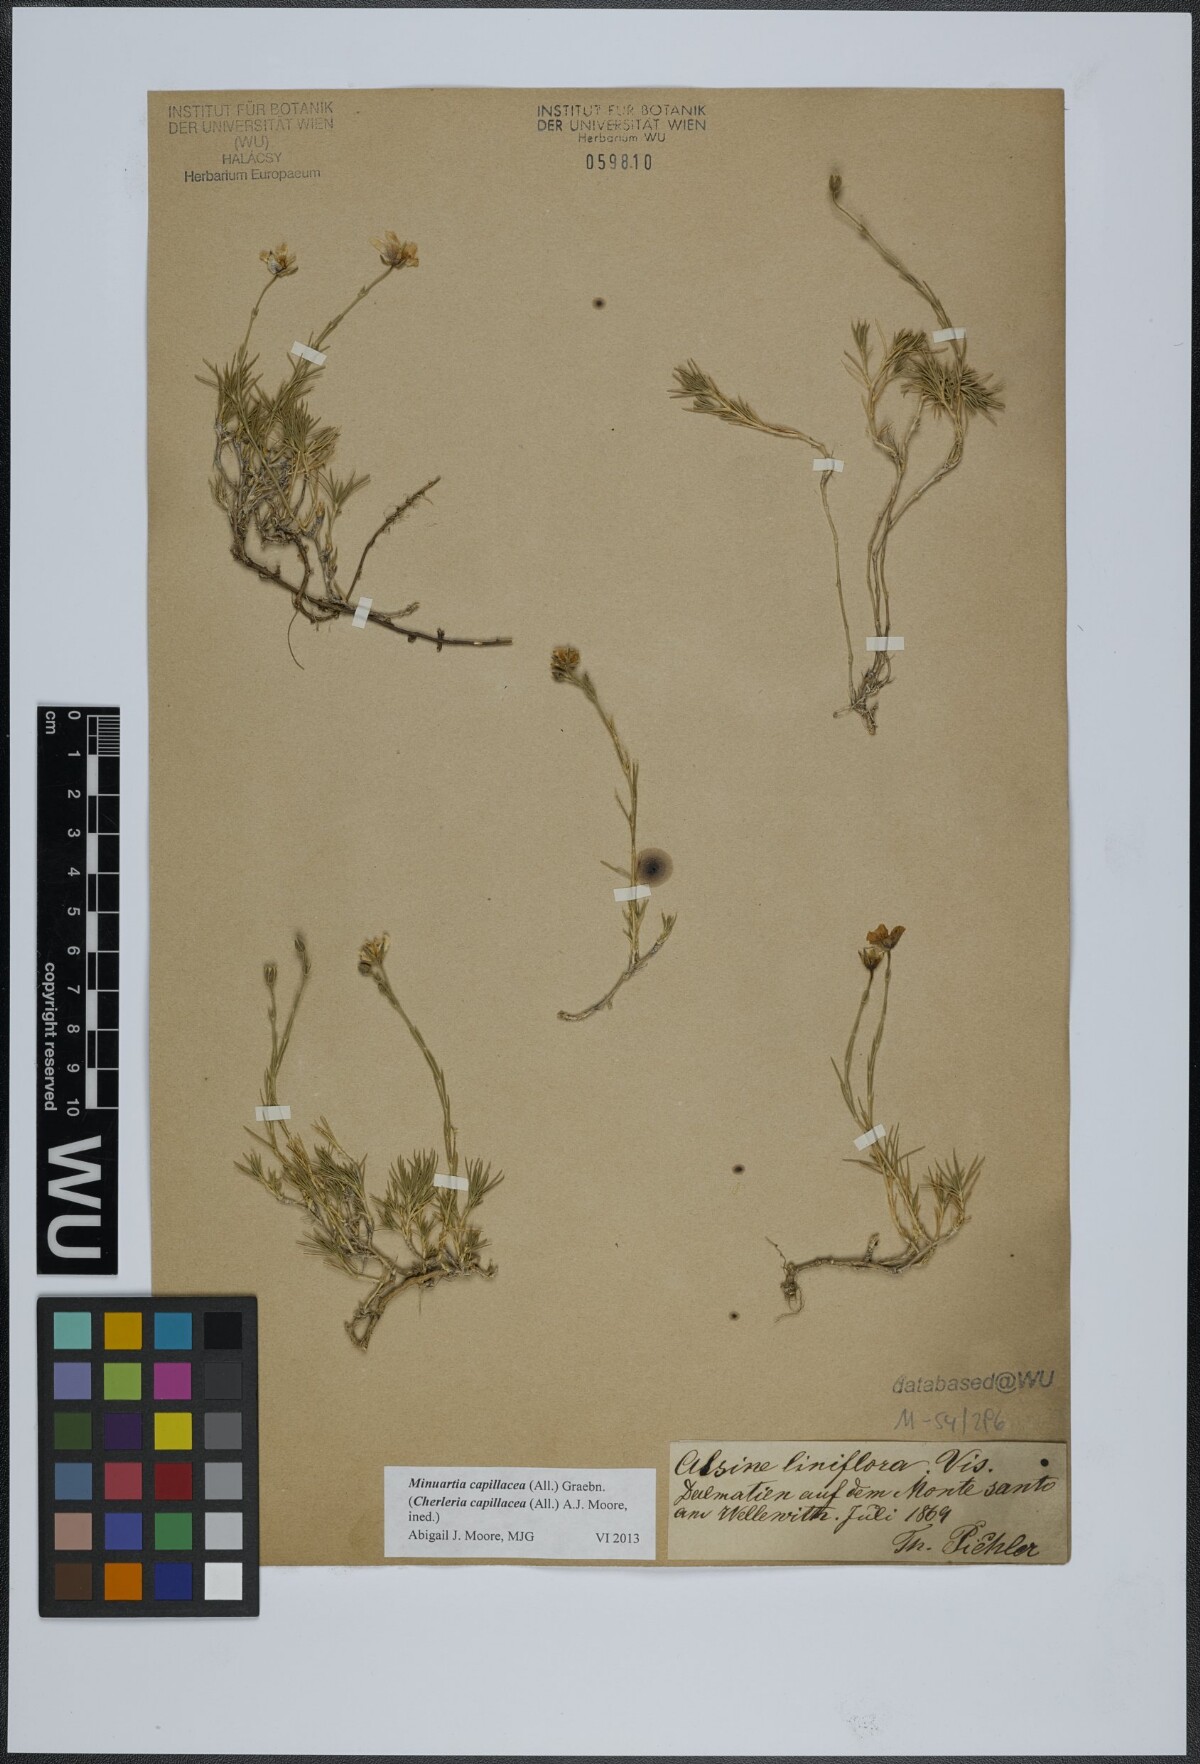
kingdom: Plantae
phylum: Tracheophyta
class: Magnoliopsida
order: Caryophyllales
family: Caryophyllaceae
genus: Cherleria
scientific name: Cherleria capillacea
